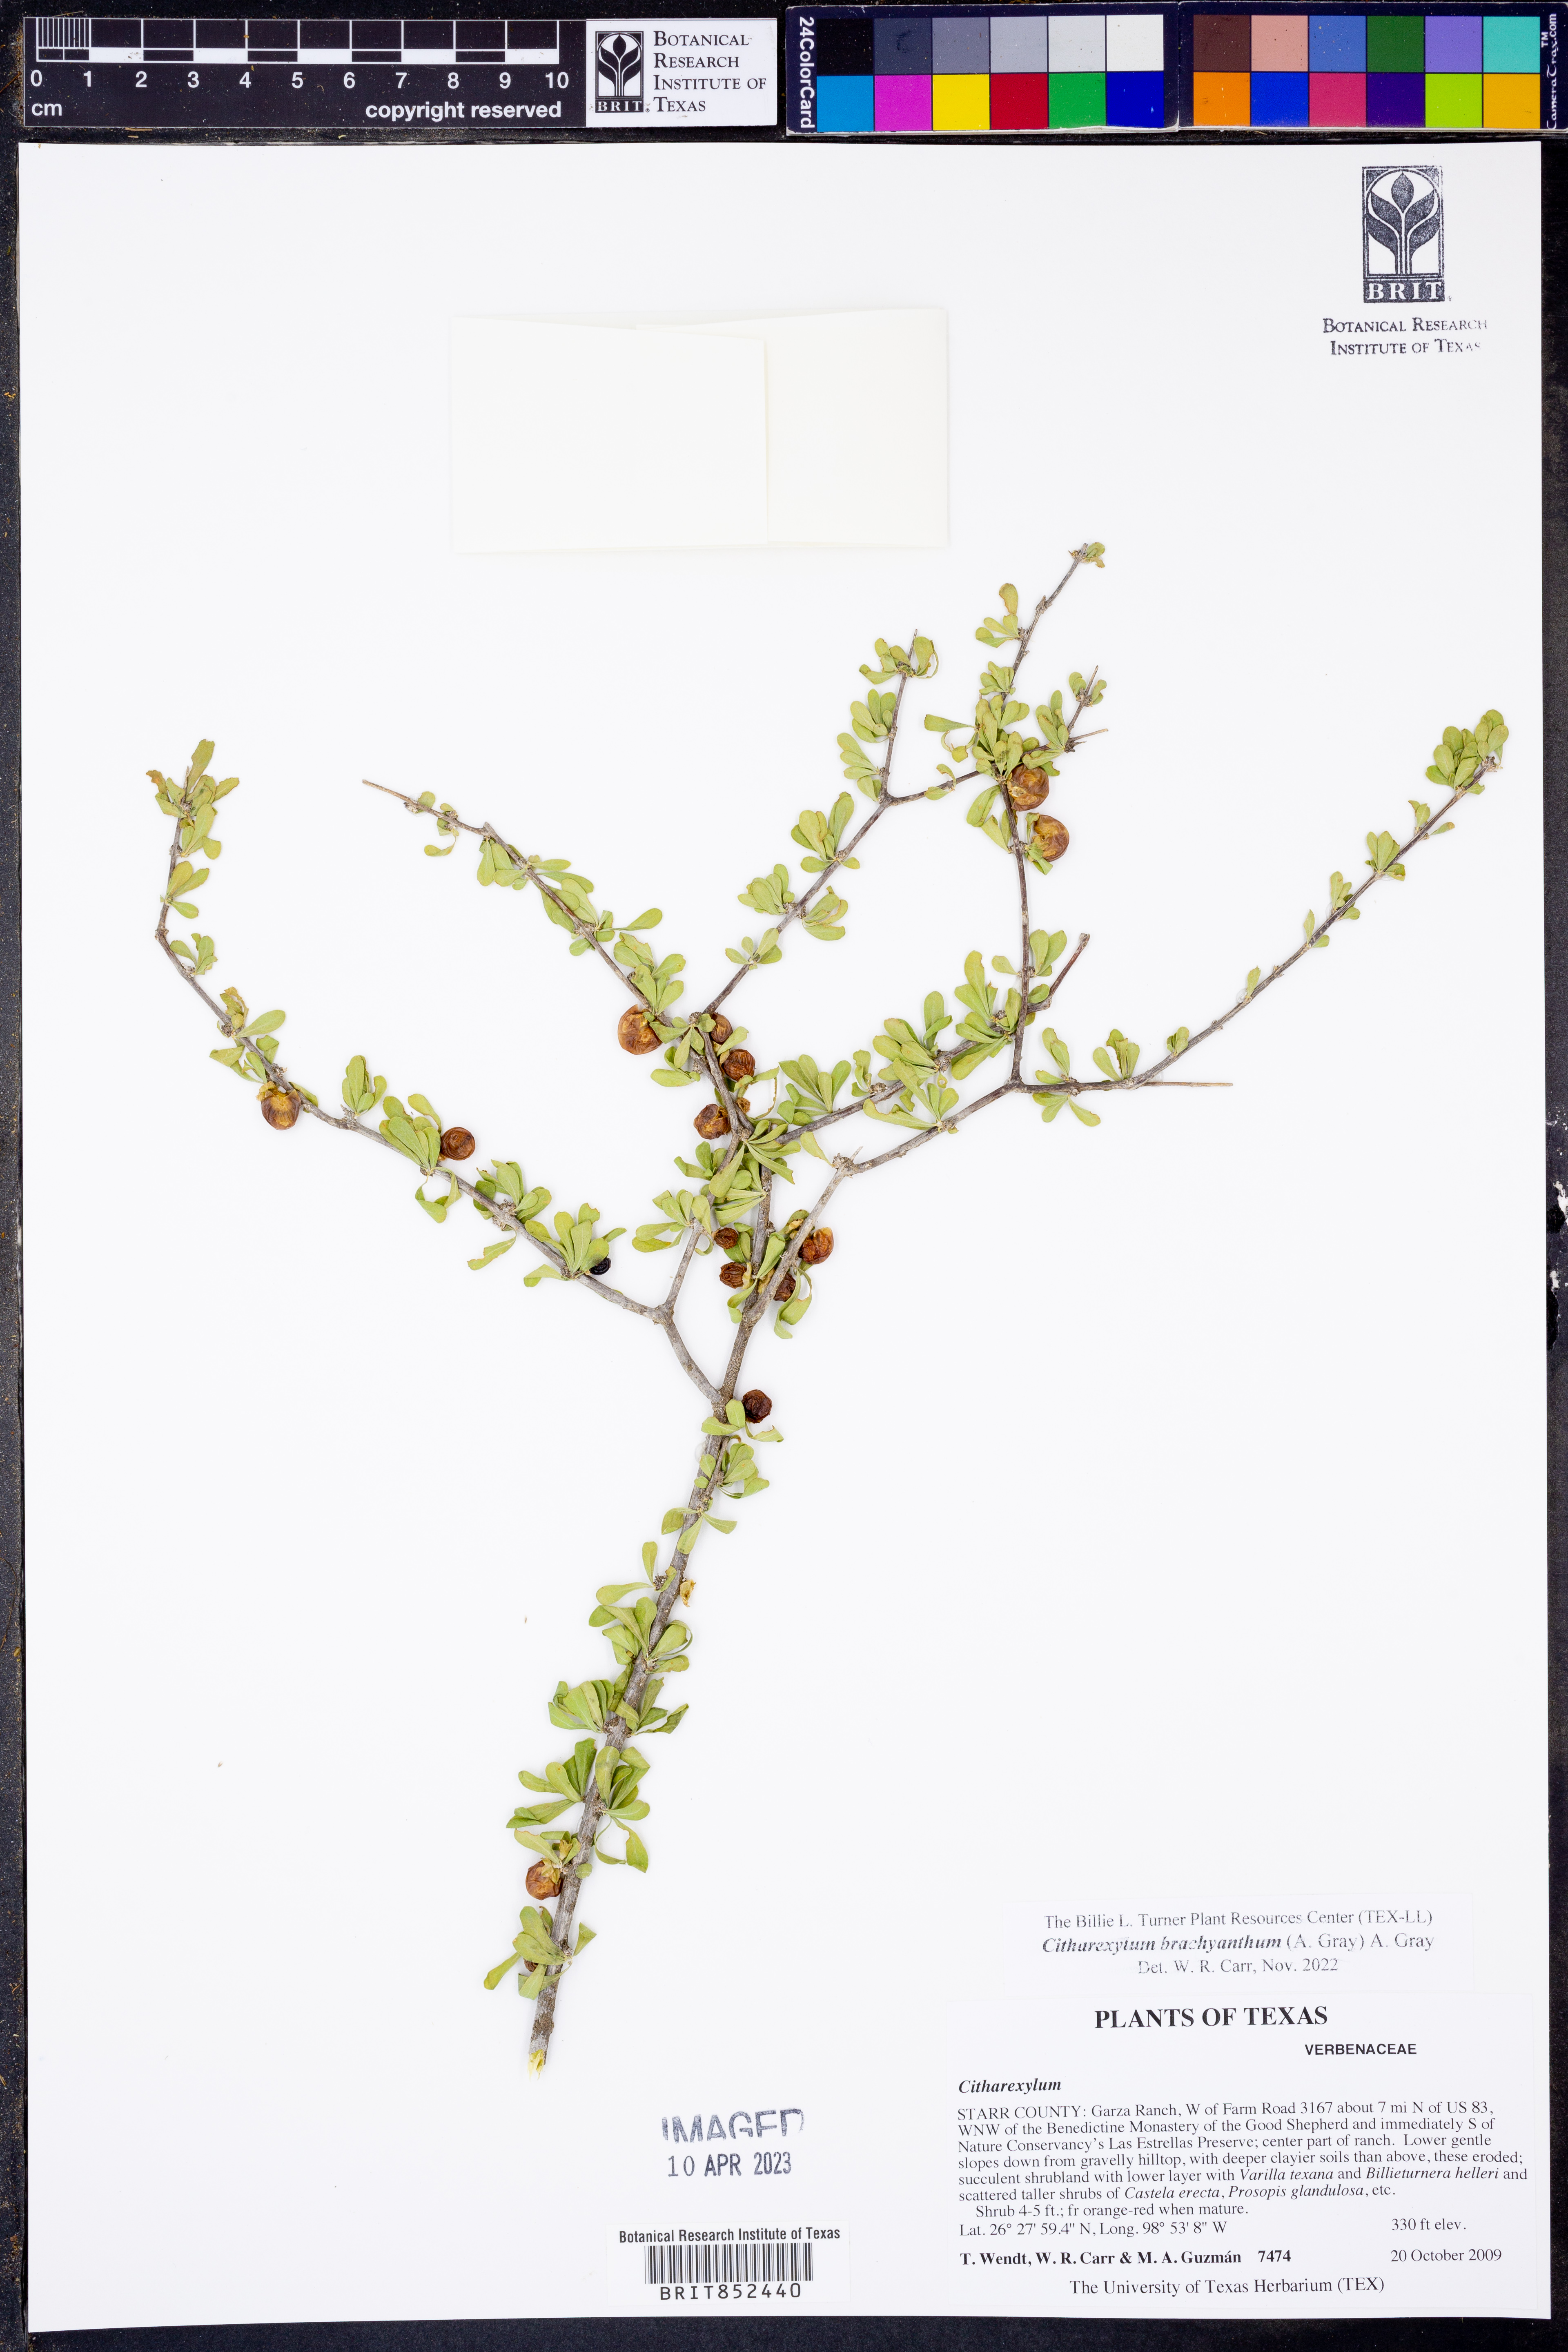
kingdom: Plantae
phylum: Tracheophyta
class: Magnoliopsida
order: Lamiales
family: Verbenaceae
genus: Citharexylum
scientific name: Citharexylum brachyanthum
